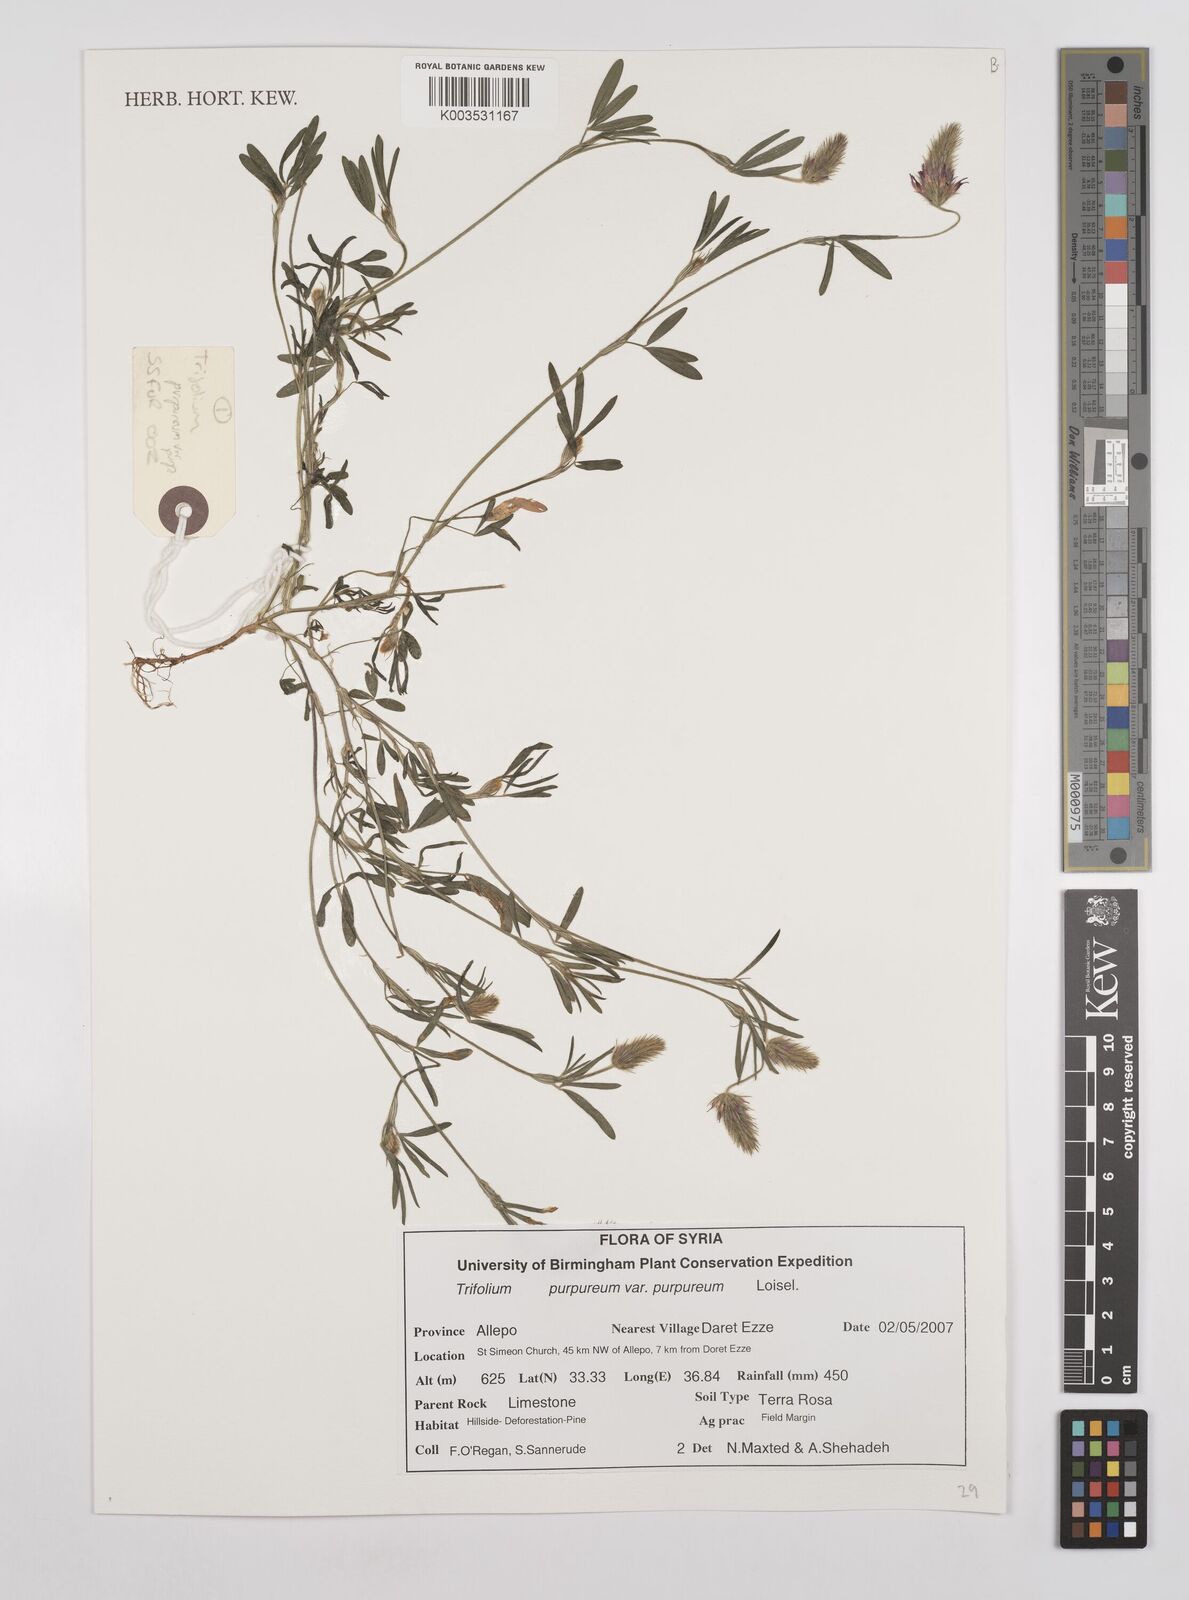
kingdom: Plantae
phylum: Tracheophyta
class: Magnoliopsida
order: Fabales
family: Fabaceae
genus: Trifolium
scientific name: Trifolium purpureum
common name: Purple clover
